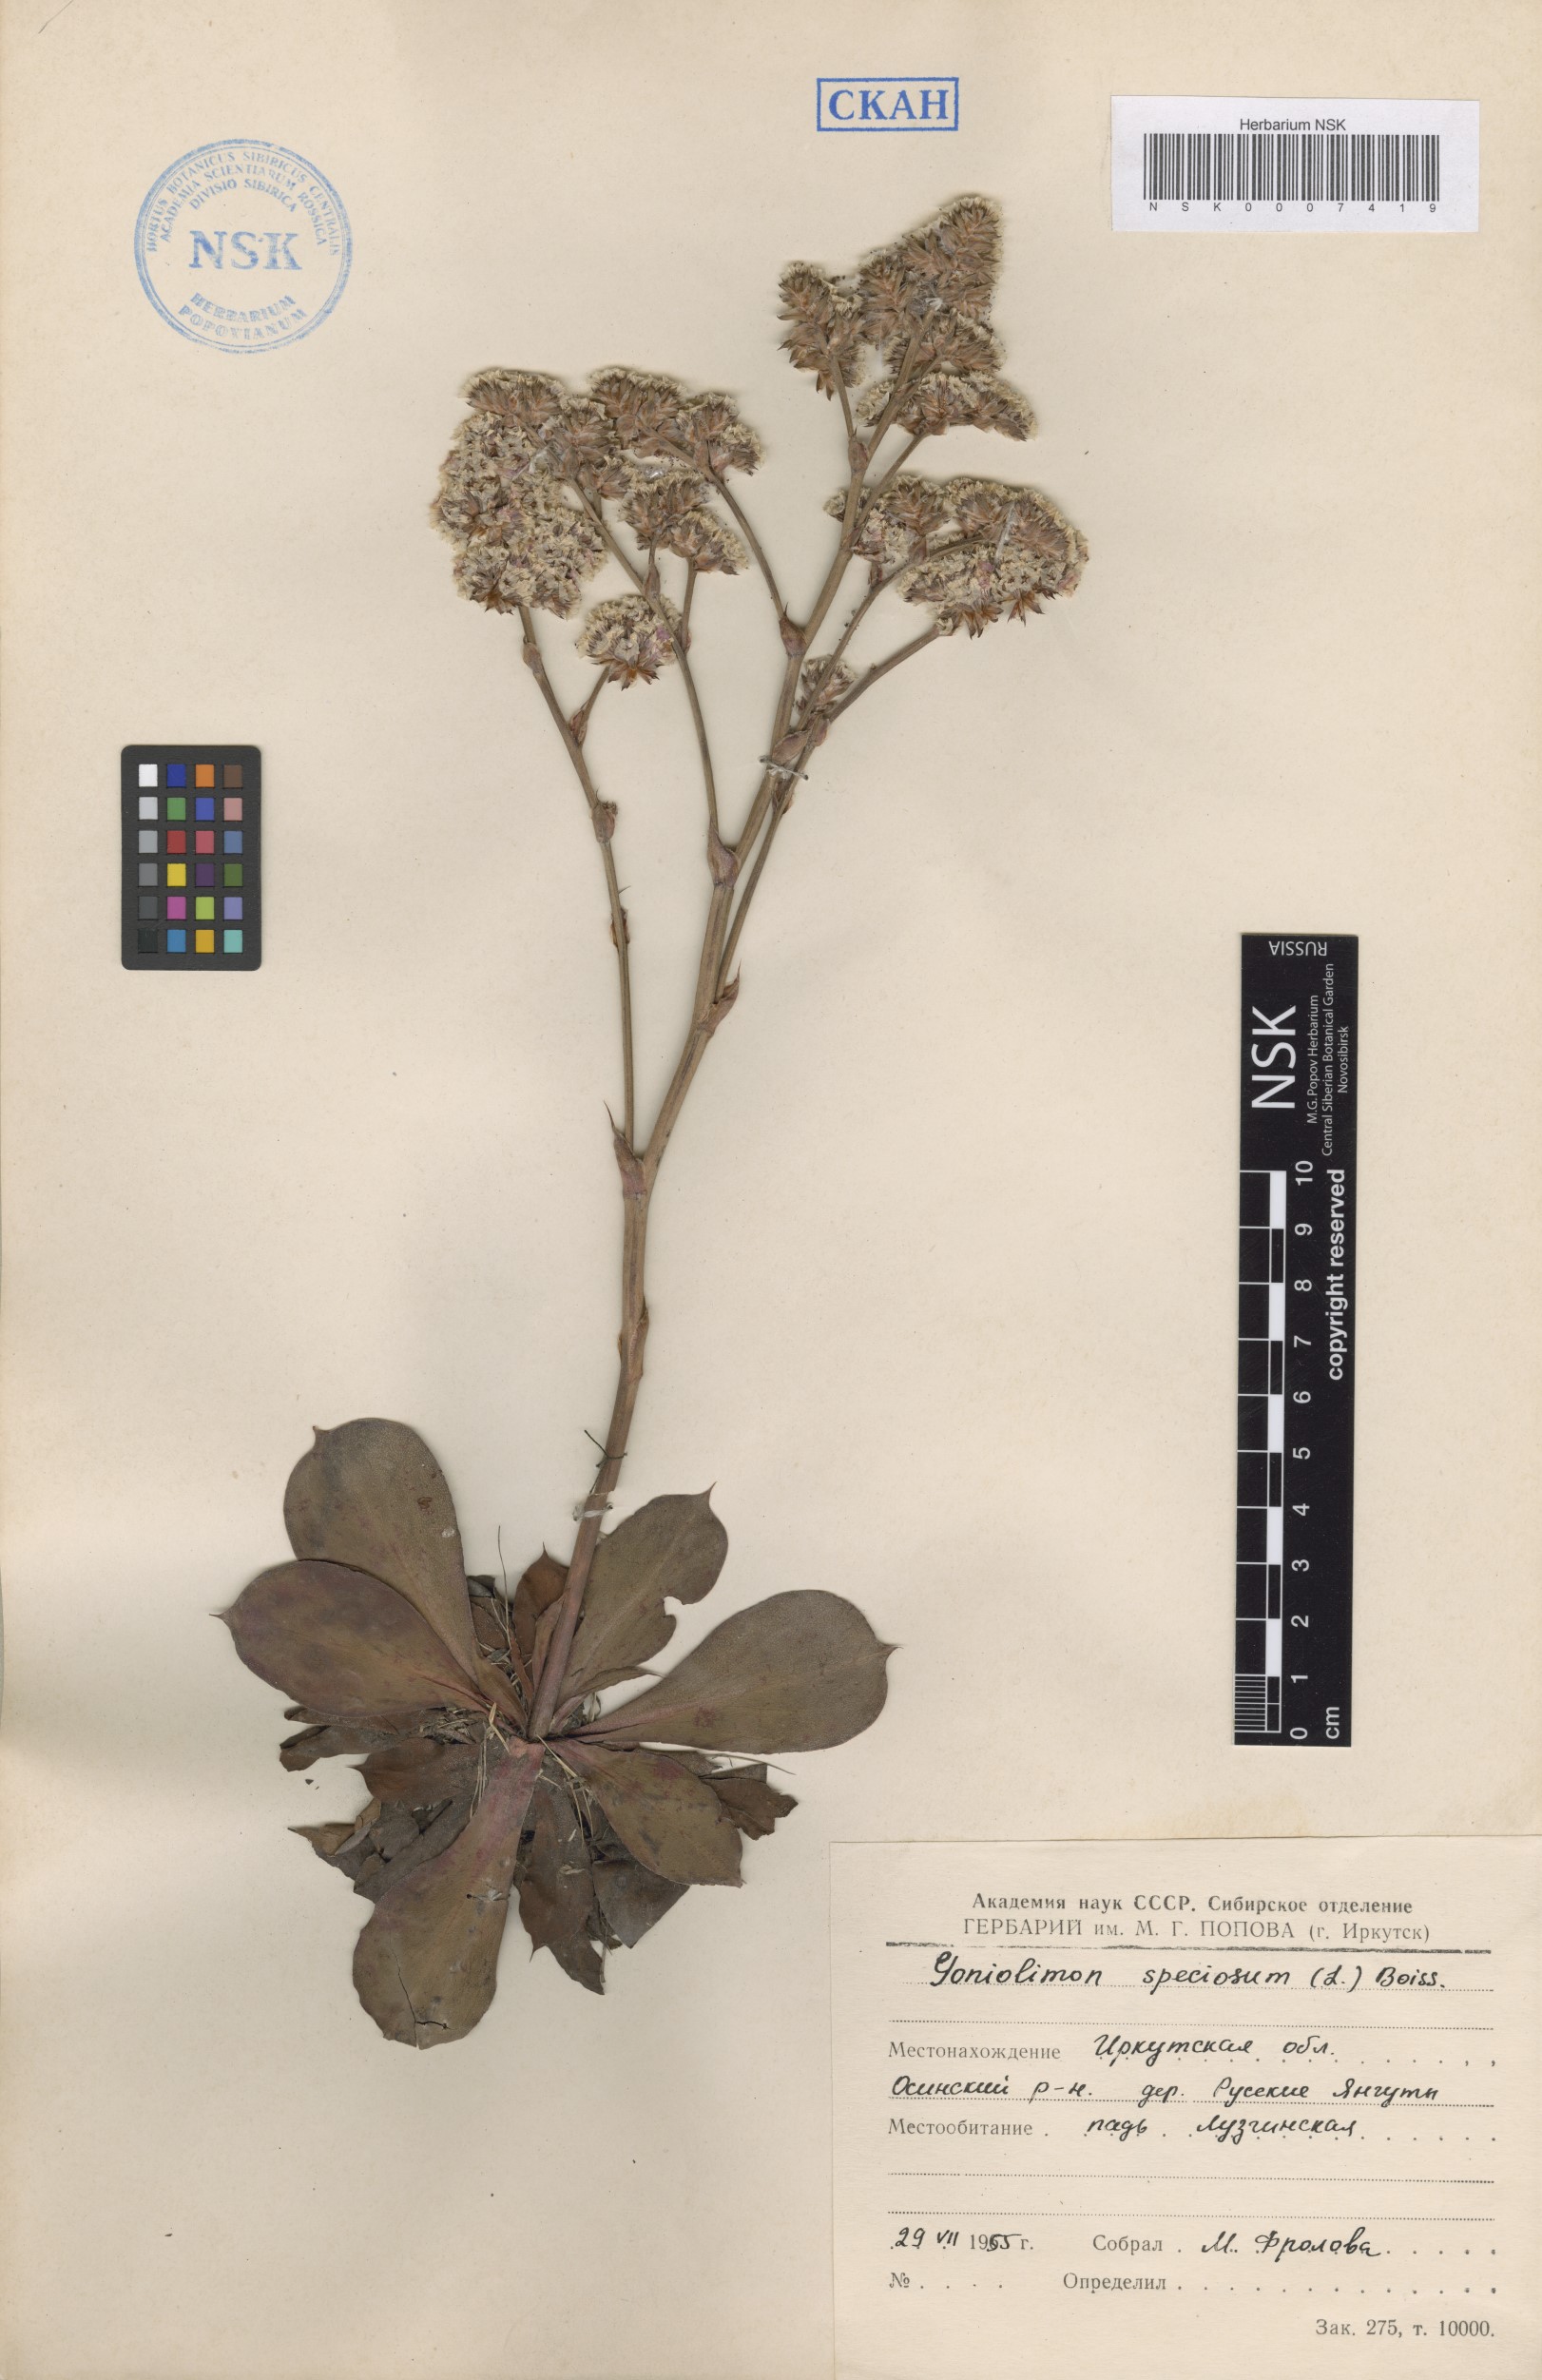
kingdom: Plantae
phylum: Tracheophyta
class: Magnoliopsida
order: Caryophyllales
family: Plumbaginaceae
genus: Goniolimon
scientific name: Goniolimon speciosum
